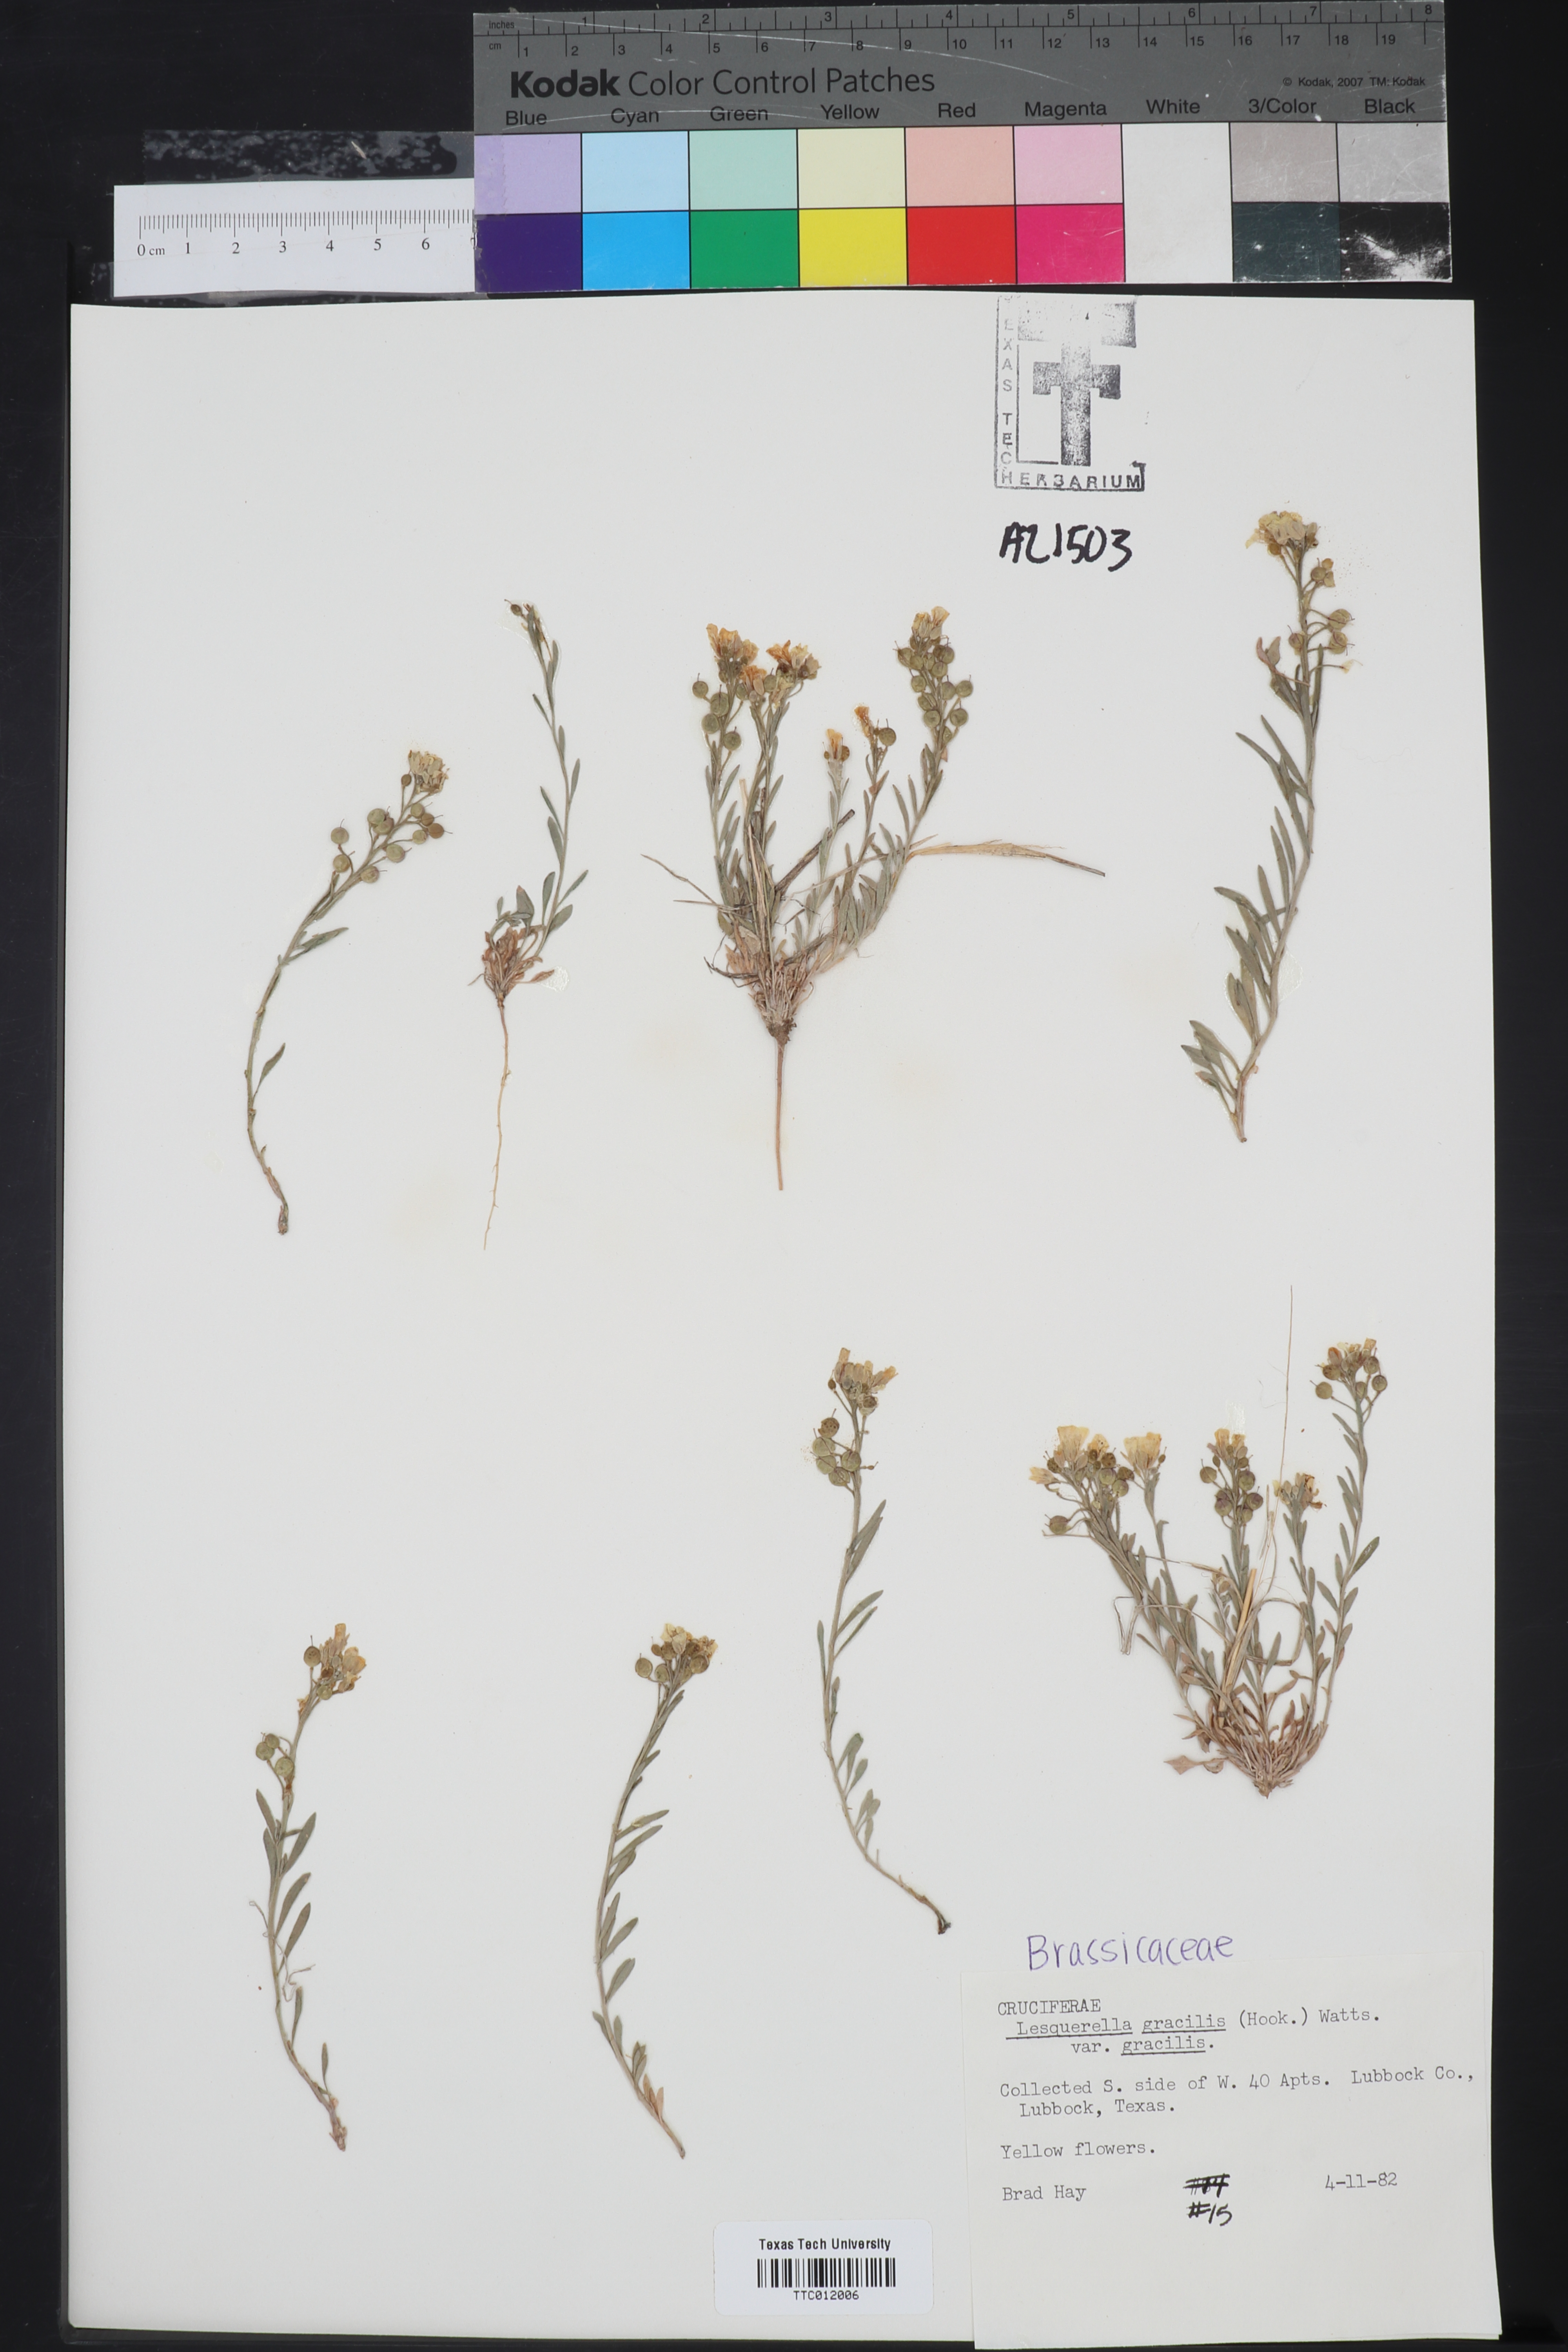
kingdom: Plantae
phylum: Tracheophyta
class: Magnoliopsida
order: Brassicales
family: Brassicaceae
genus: Physaria
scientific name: Physaria gracilis
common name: Spreading bladderpod
